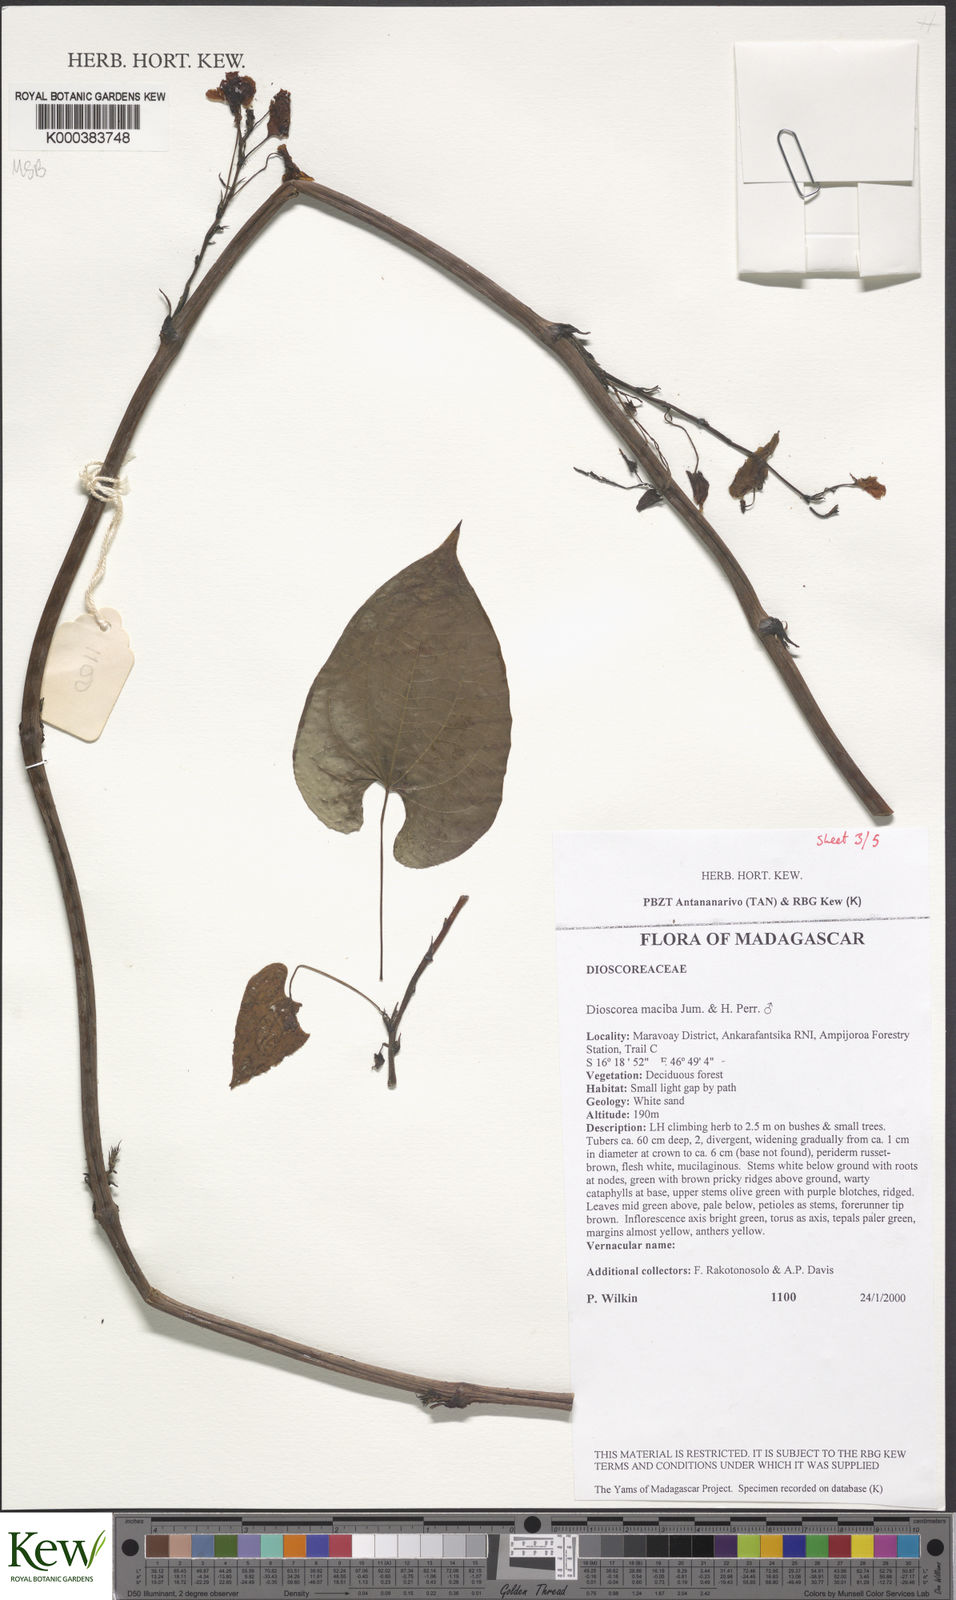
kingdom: Plantae
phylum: Tracheophyta
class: Liliopsida
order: Dioscoreales
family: Dioscoreaceae
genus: Dioscorea
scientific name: Dioscorea
